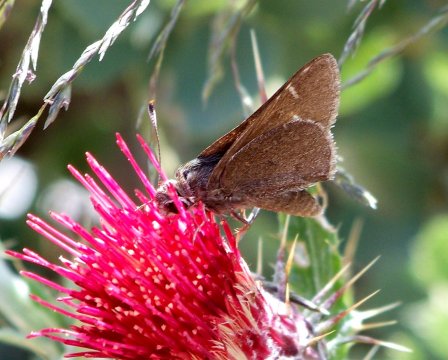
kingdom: Animalia
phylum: Arthropoda
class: Insecta
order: Lepidoptera
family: Hesperiidae
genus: Atrytonopsis
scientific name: Atrytonopsis deva
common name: Deva Skipper
